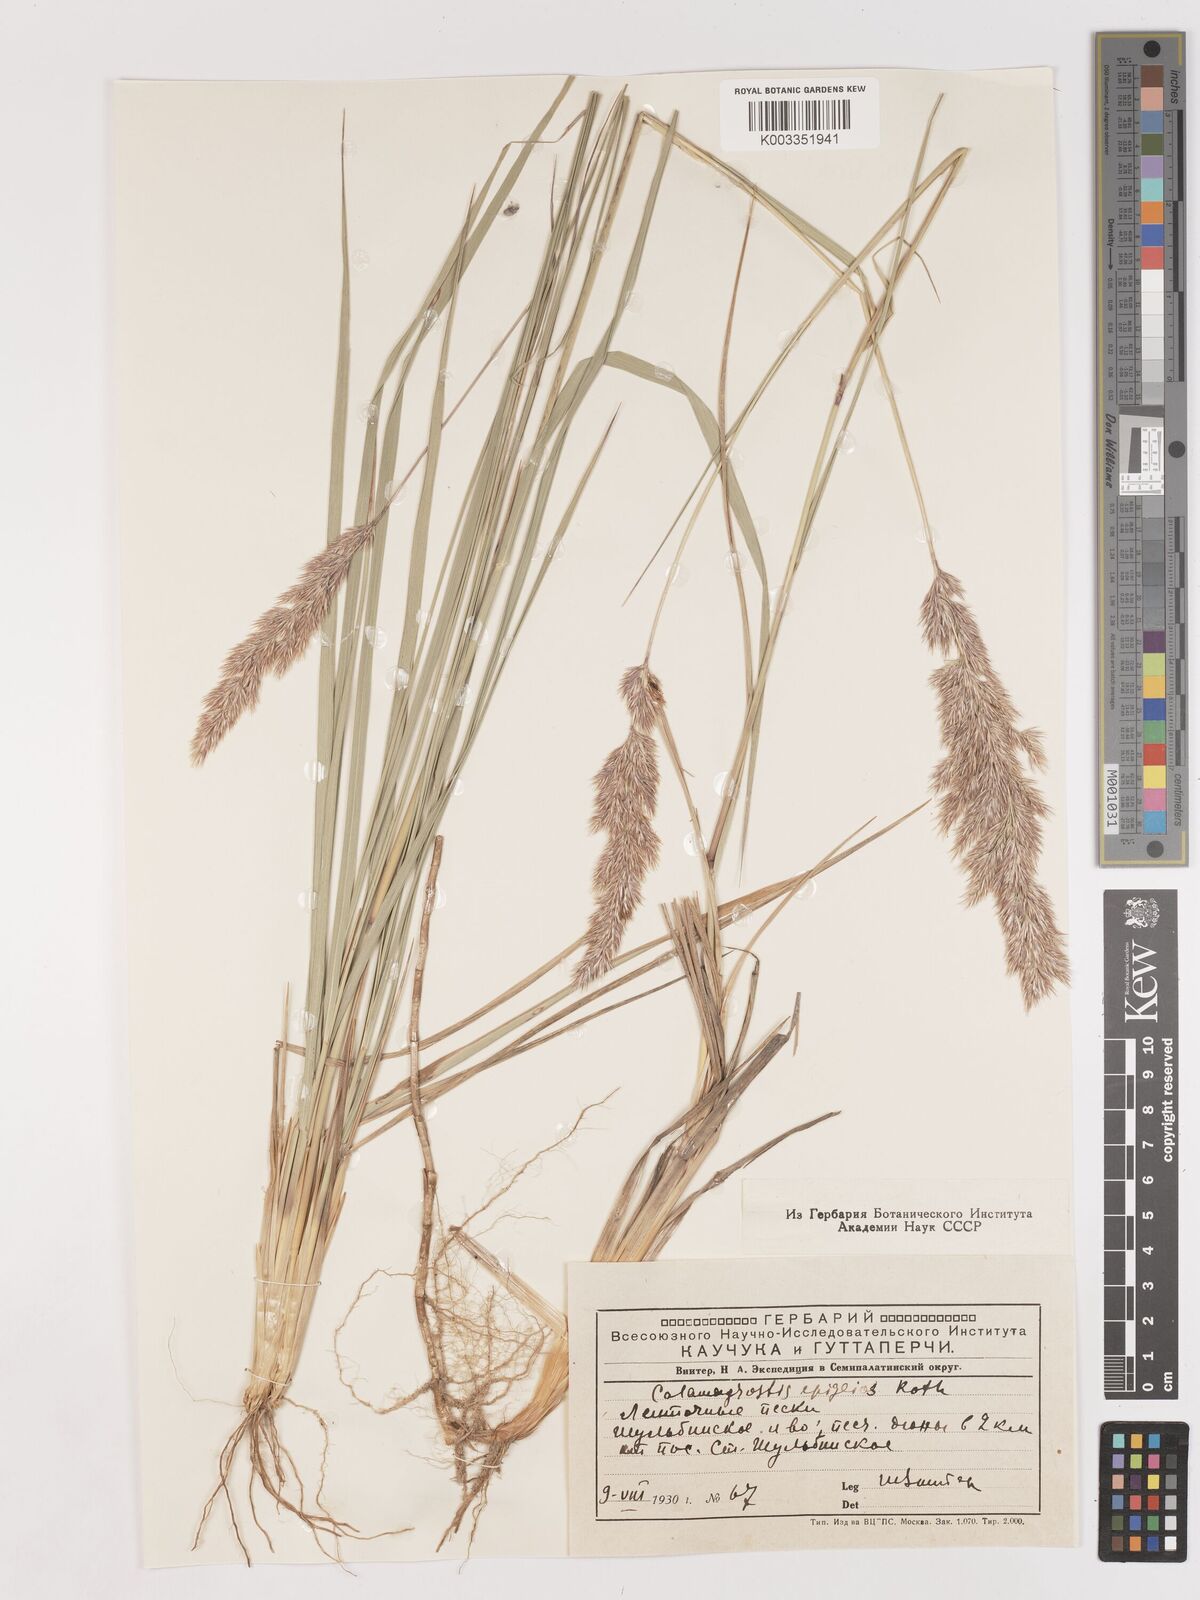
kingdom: Plantae
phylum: Tracheophyta
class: Liliopsida
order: Poales
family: Poaceae
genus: Calamagrostis
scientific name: Calamagrostis epigejos
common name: Wood small-reed
